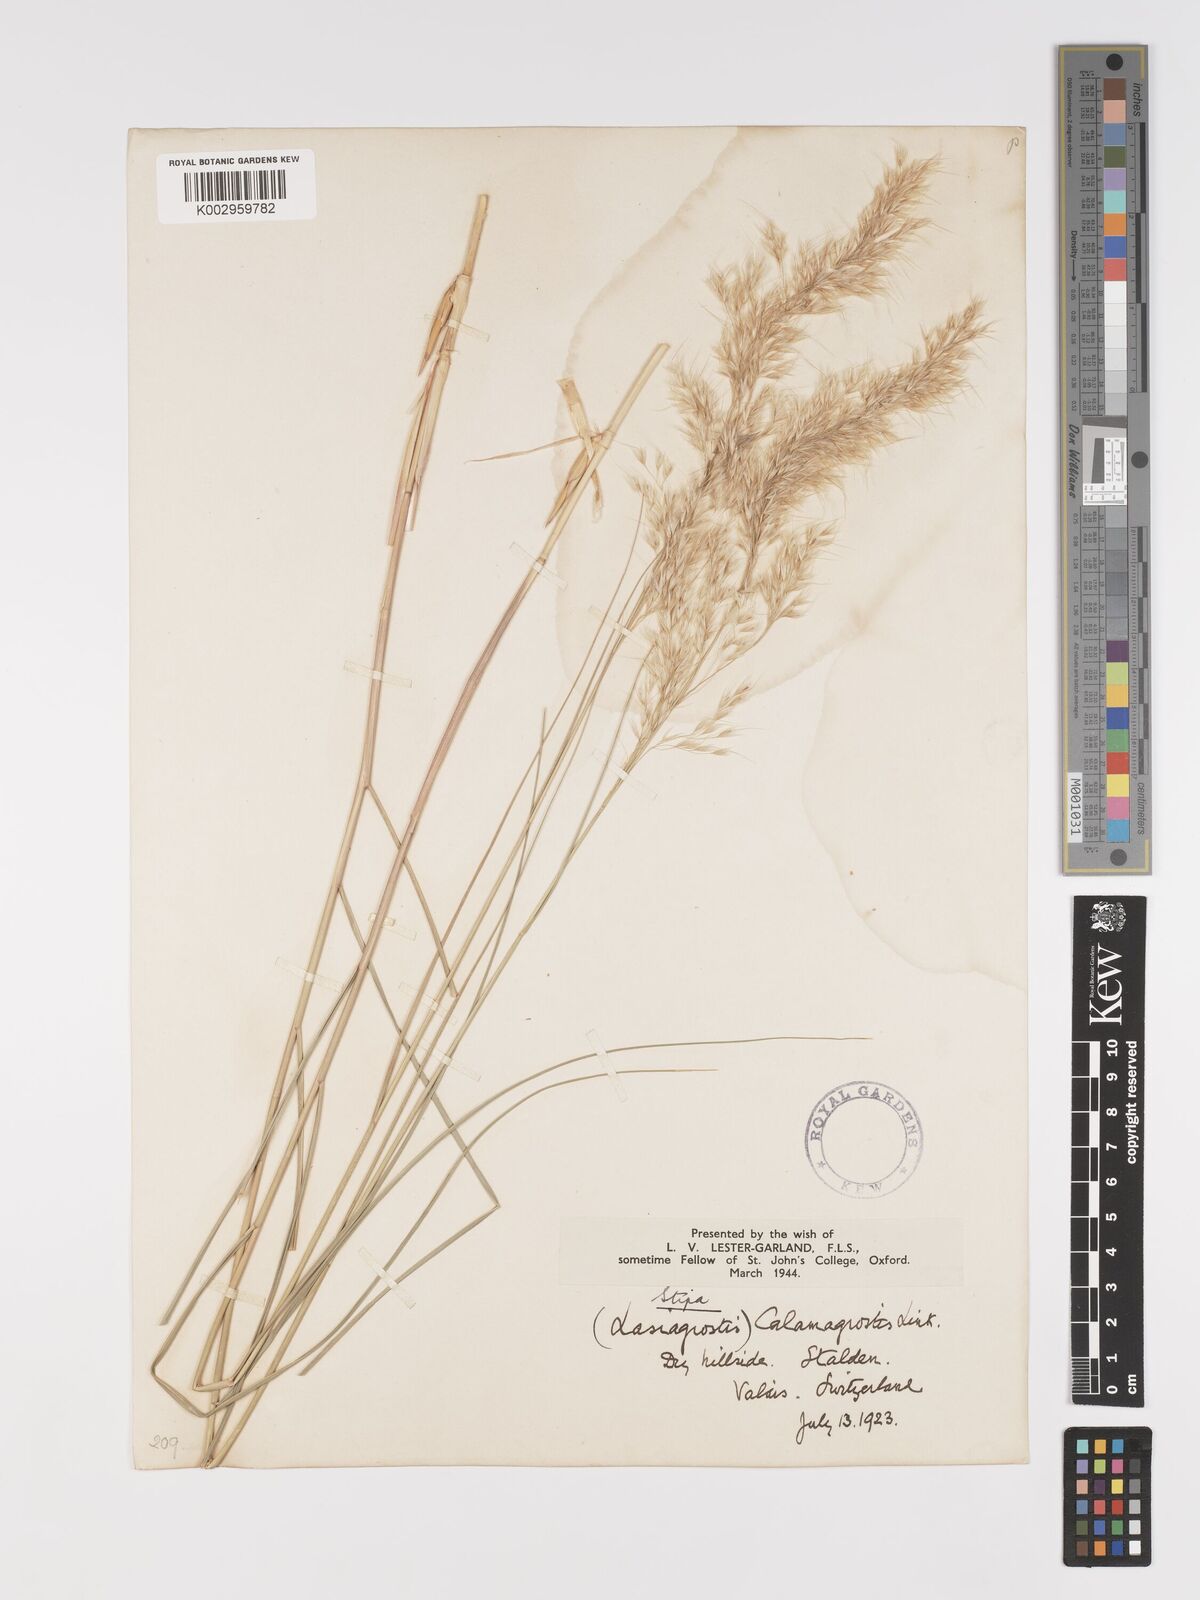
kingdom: Plantae
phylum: Tracheophyta
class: Liliopsida
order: Poales
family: Poaceae
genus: Achnatherum
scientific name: Achnatherum calamagrostis
